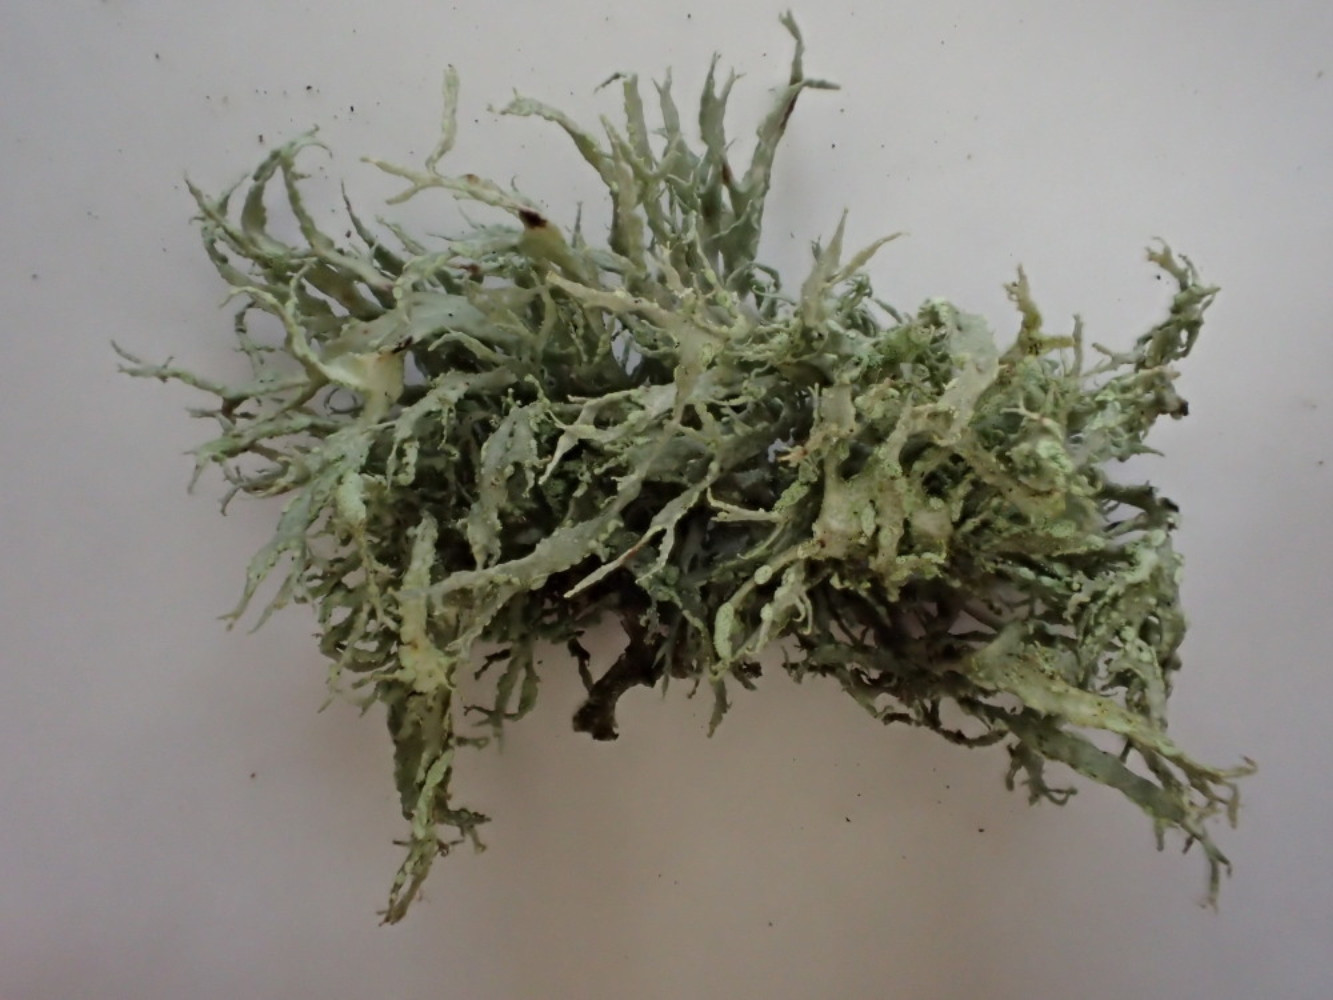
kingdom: Fungi
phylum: Ascomycota
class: Lecanoromycetes
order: Lecanorales
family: Ramalinaceae
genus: Ramalina
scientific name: Ramalina farinacea
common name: melet grenlav
